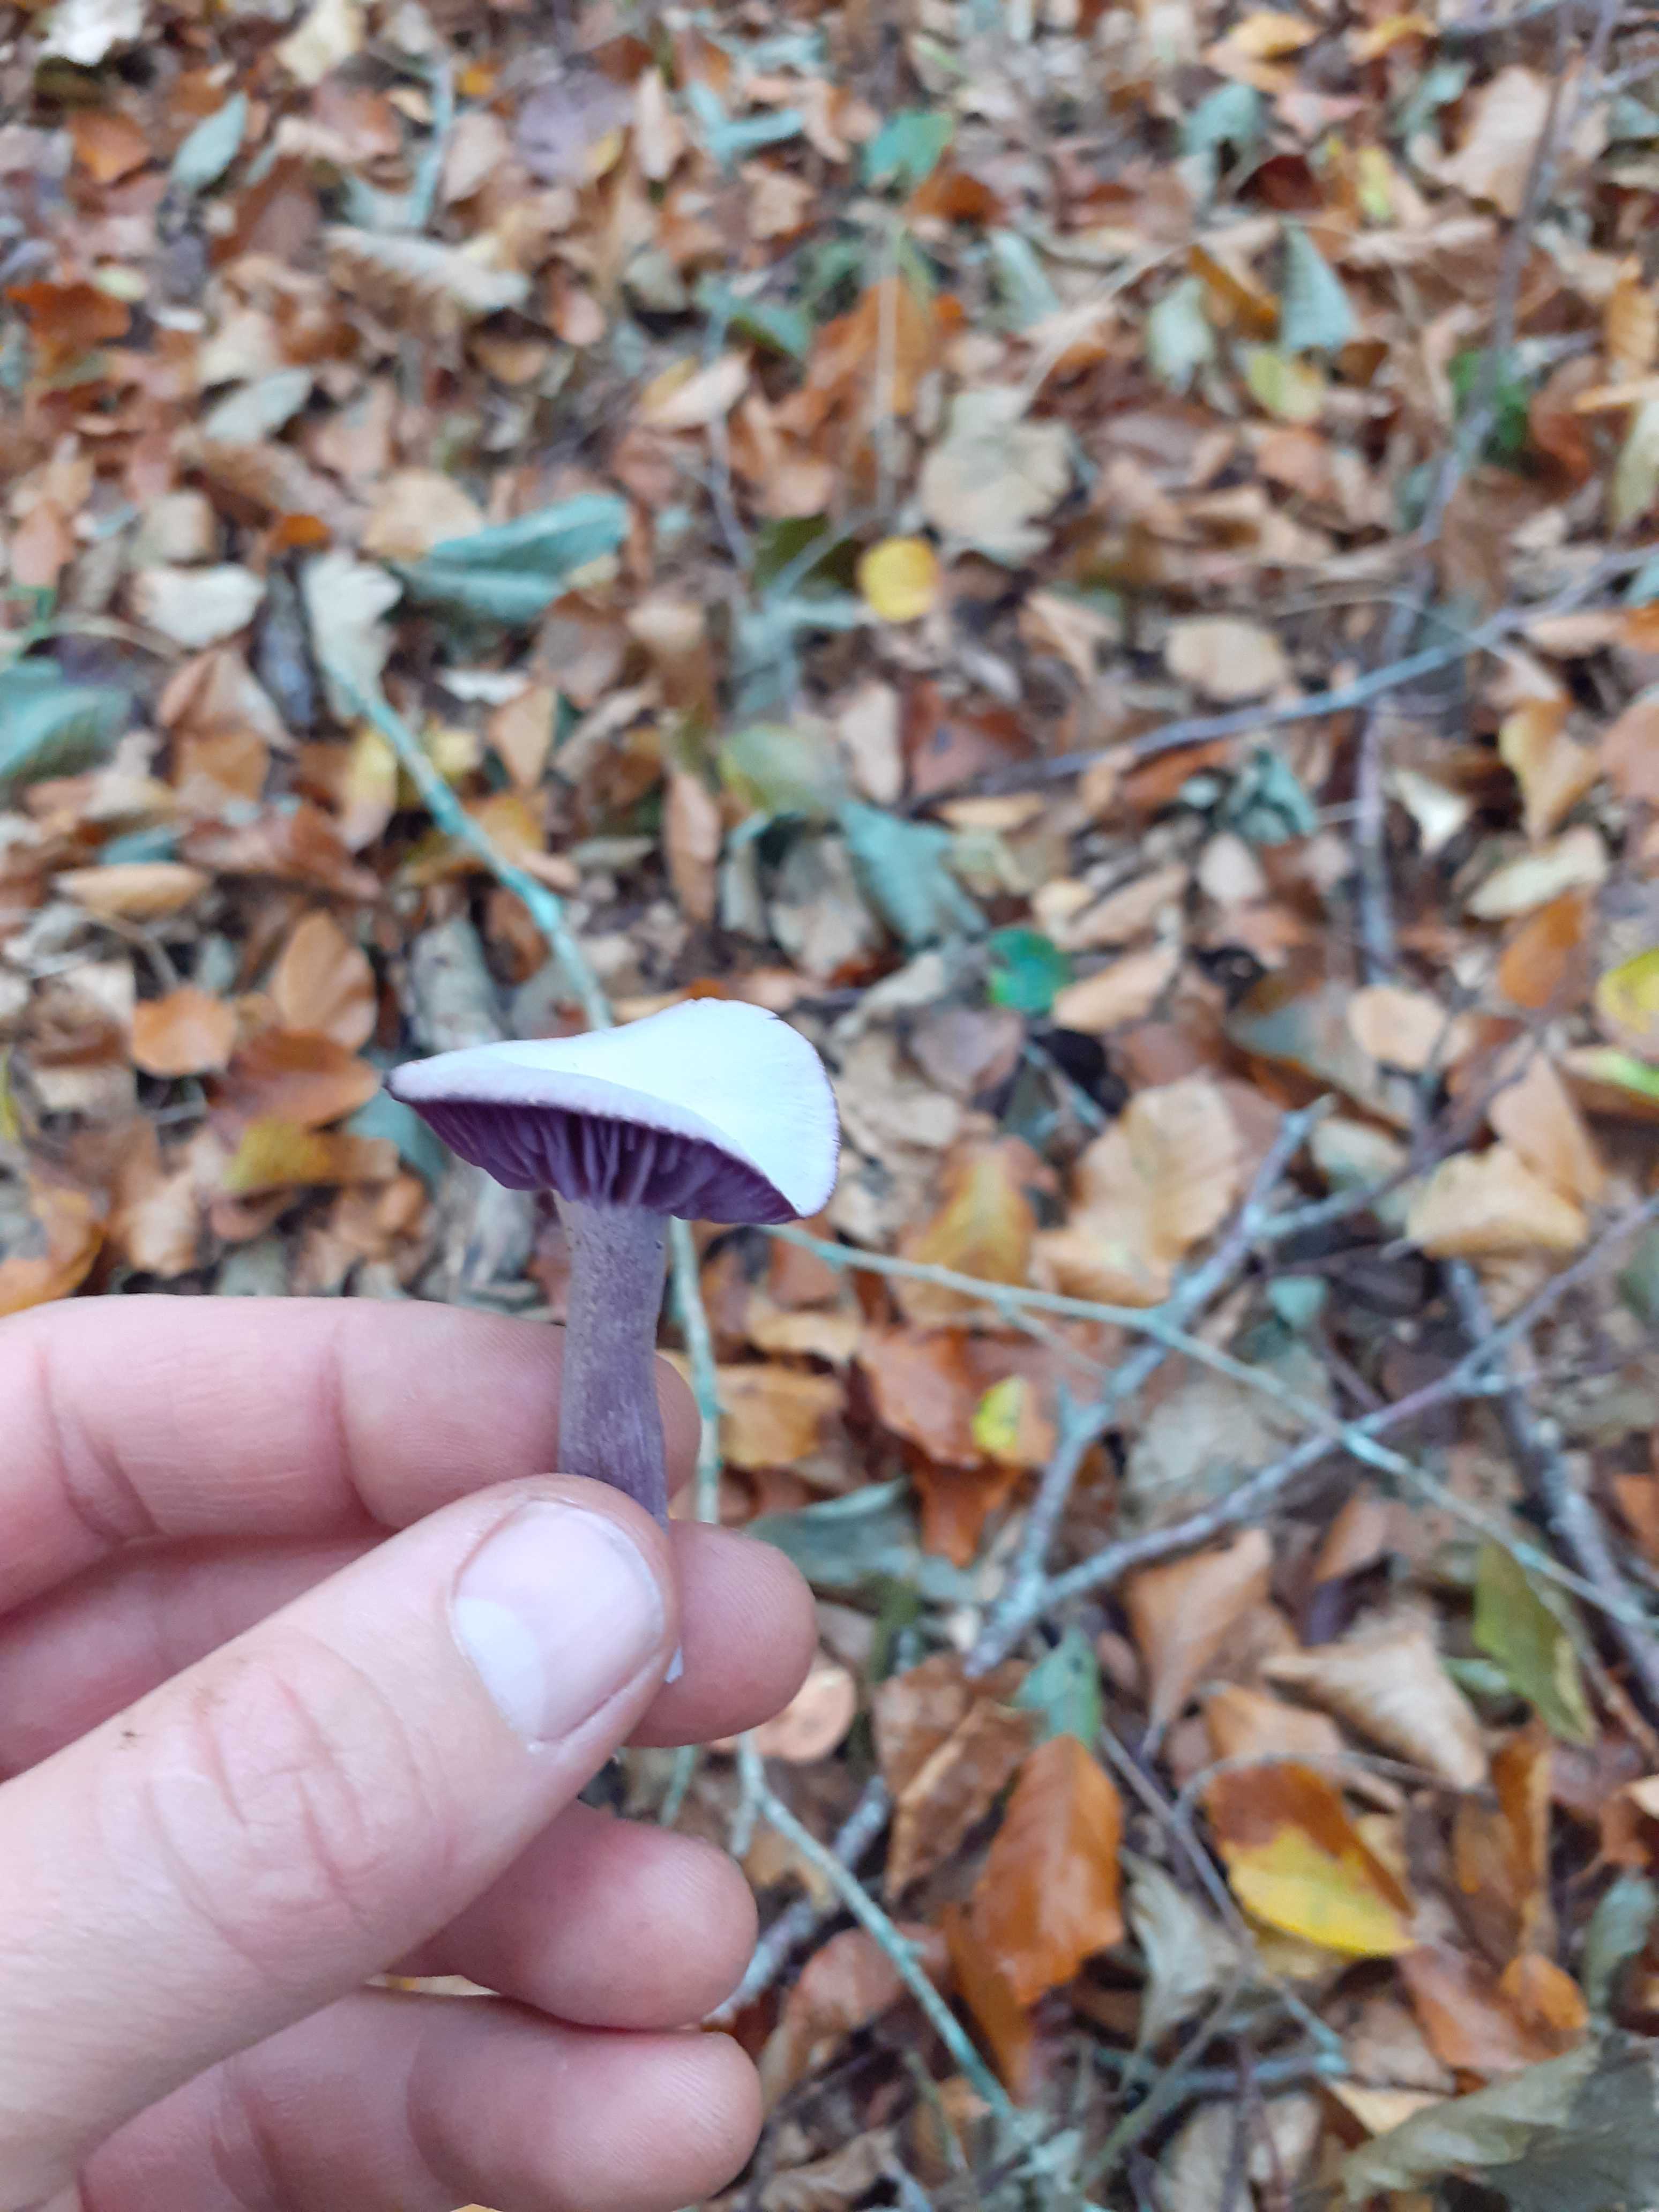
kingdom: Fungi
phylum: Basidiomycota
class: Agaricomycetes
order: Agaricales
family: Hydnangiaceae
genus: Laccaria
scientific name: Laccaria amethystina
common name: violet ametysthat
